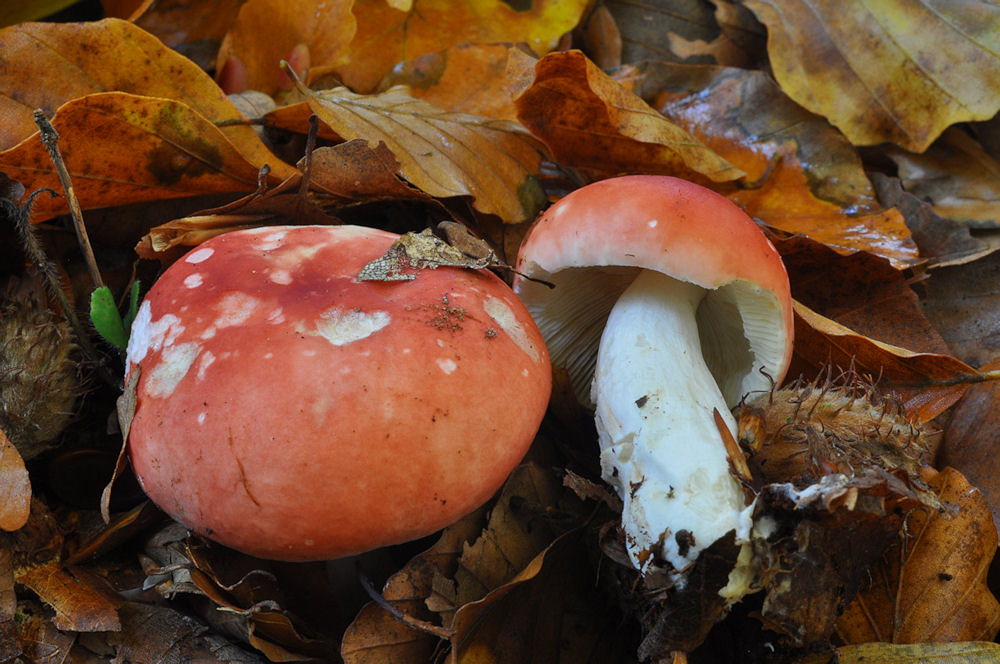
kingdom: Fungi
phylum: Basidiomycota
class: Agaricomycetes
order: Russulales
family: Russulaceae
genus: Russula
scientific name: Russula rosea
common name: fastkødet skørhat
